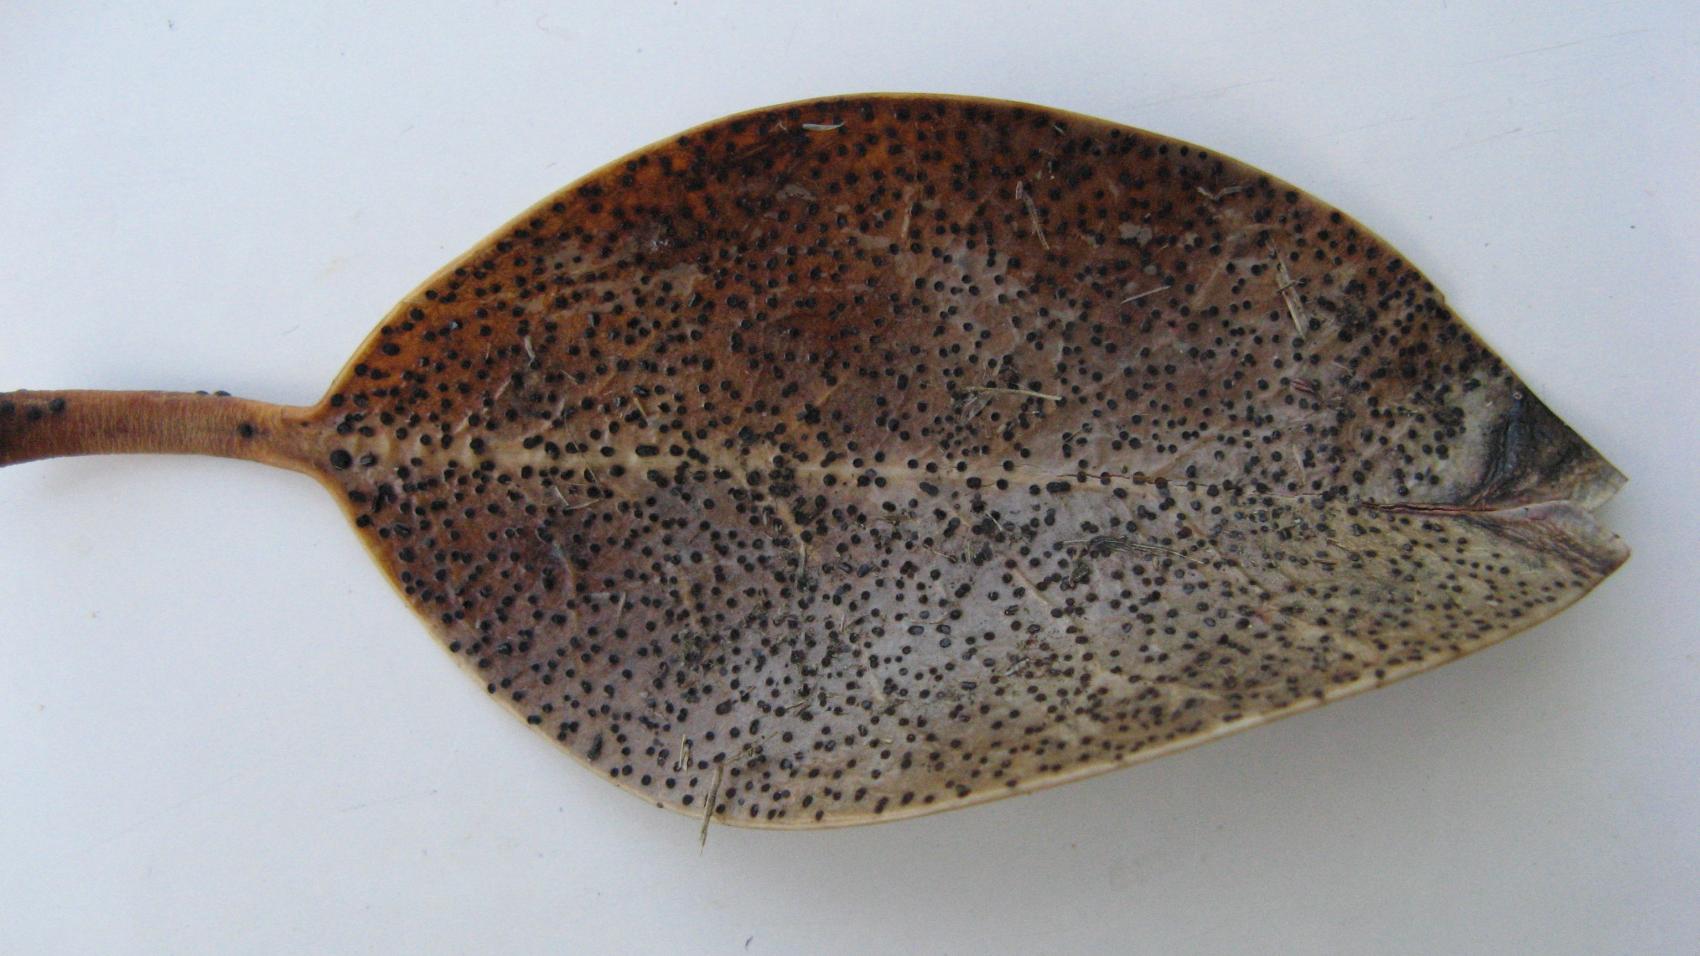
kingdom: Fungi
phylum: Ascomycota
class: Leotiomycetes
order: Helotiales
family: Cenangiaceae
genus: Trochila
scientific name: Trochila ilicina
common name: kristtorn-lågskive
